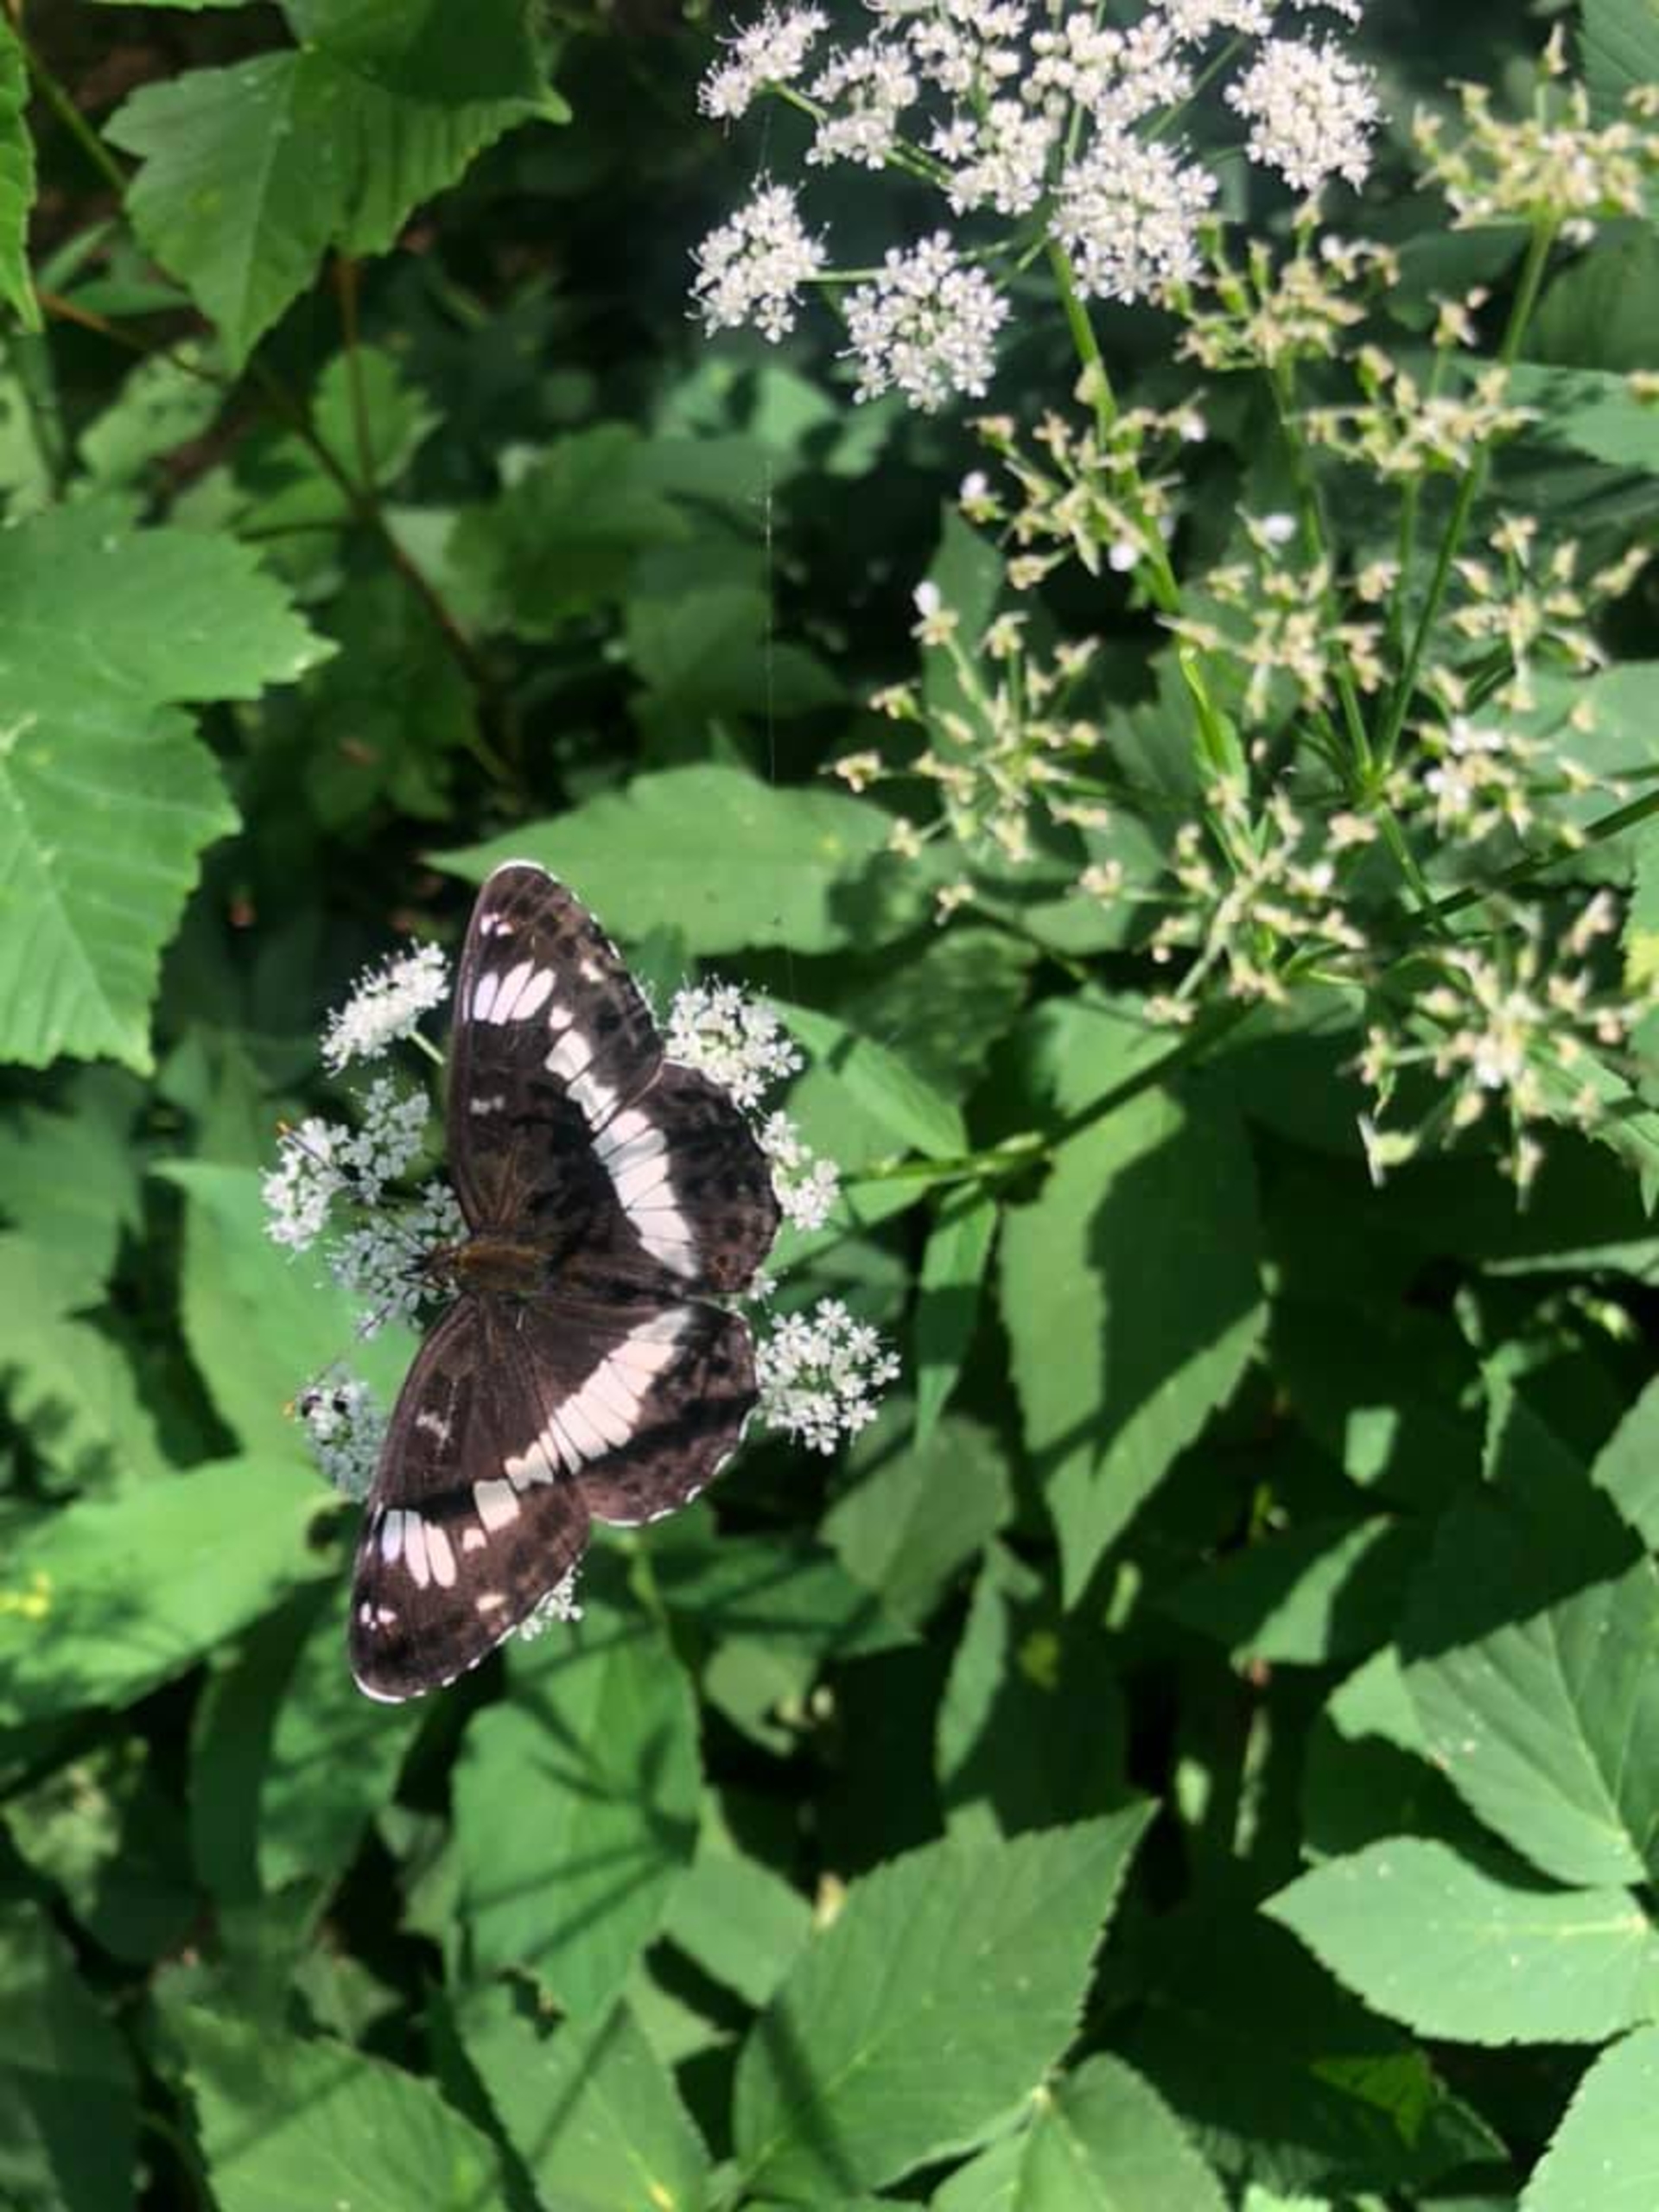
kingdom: Animalia
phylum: Arthropoda
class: Insecta
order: Lepidoptera
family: Nymphalidae
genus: Ladoga
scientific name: Ladoga camilla
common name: Hvid admiral
